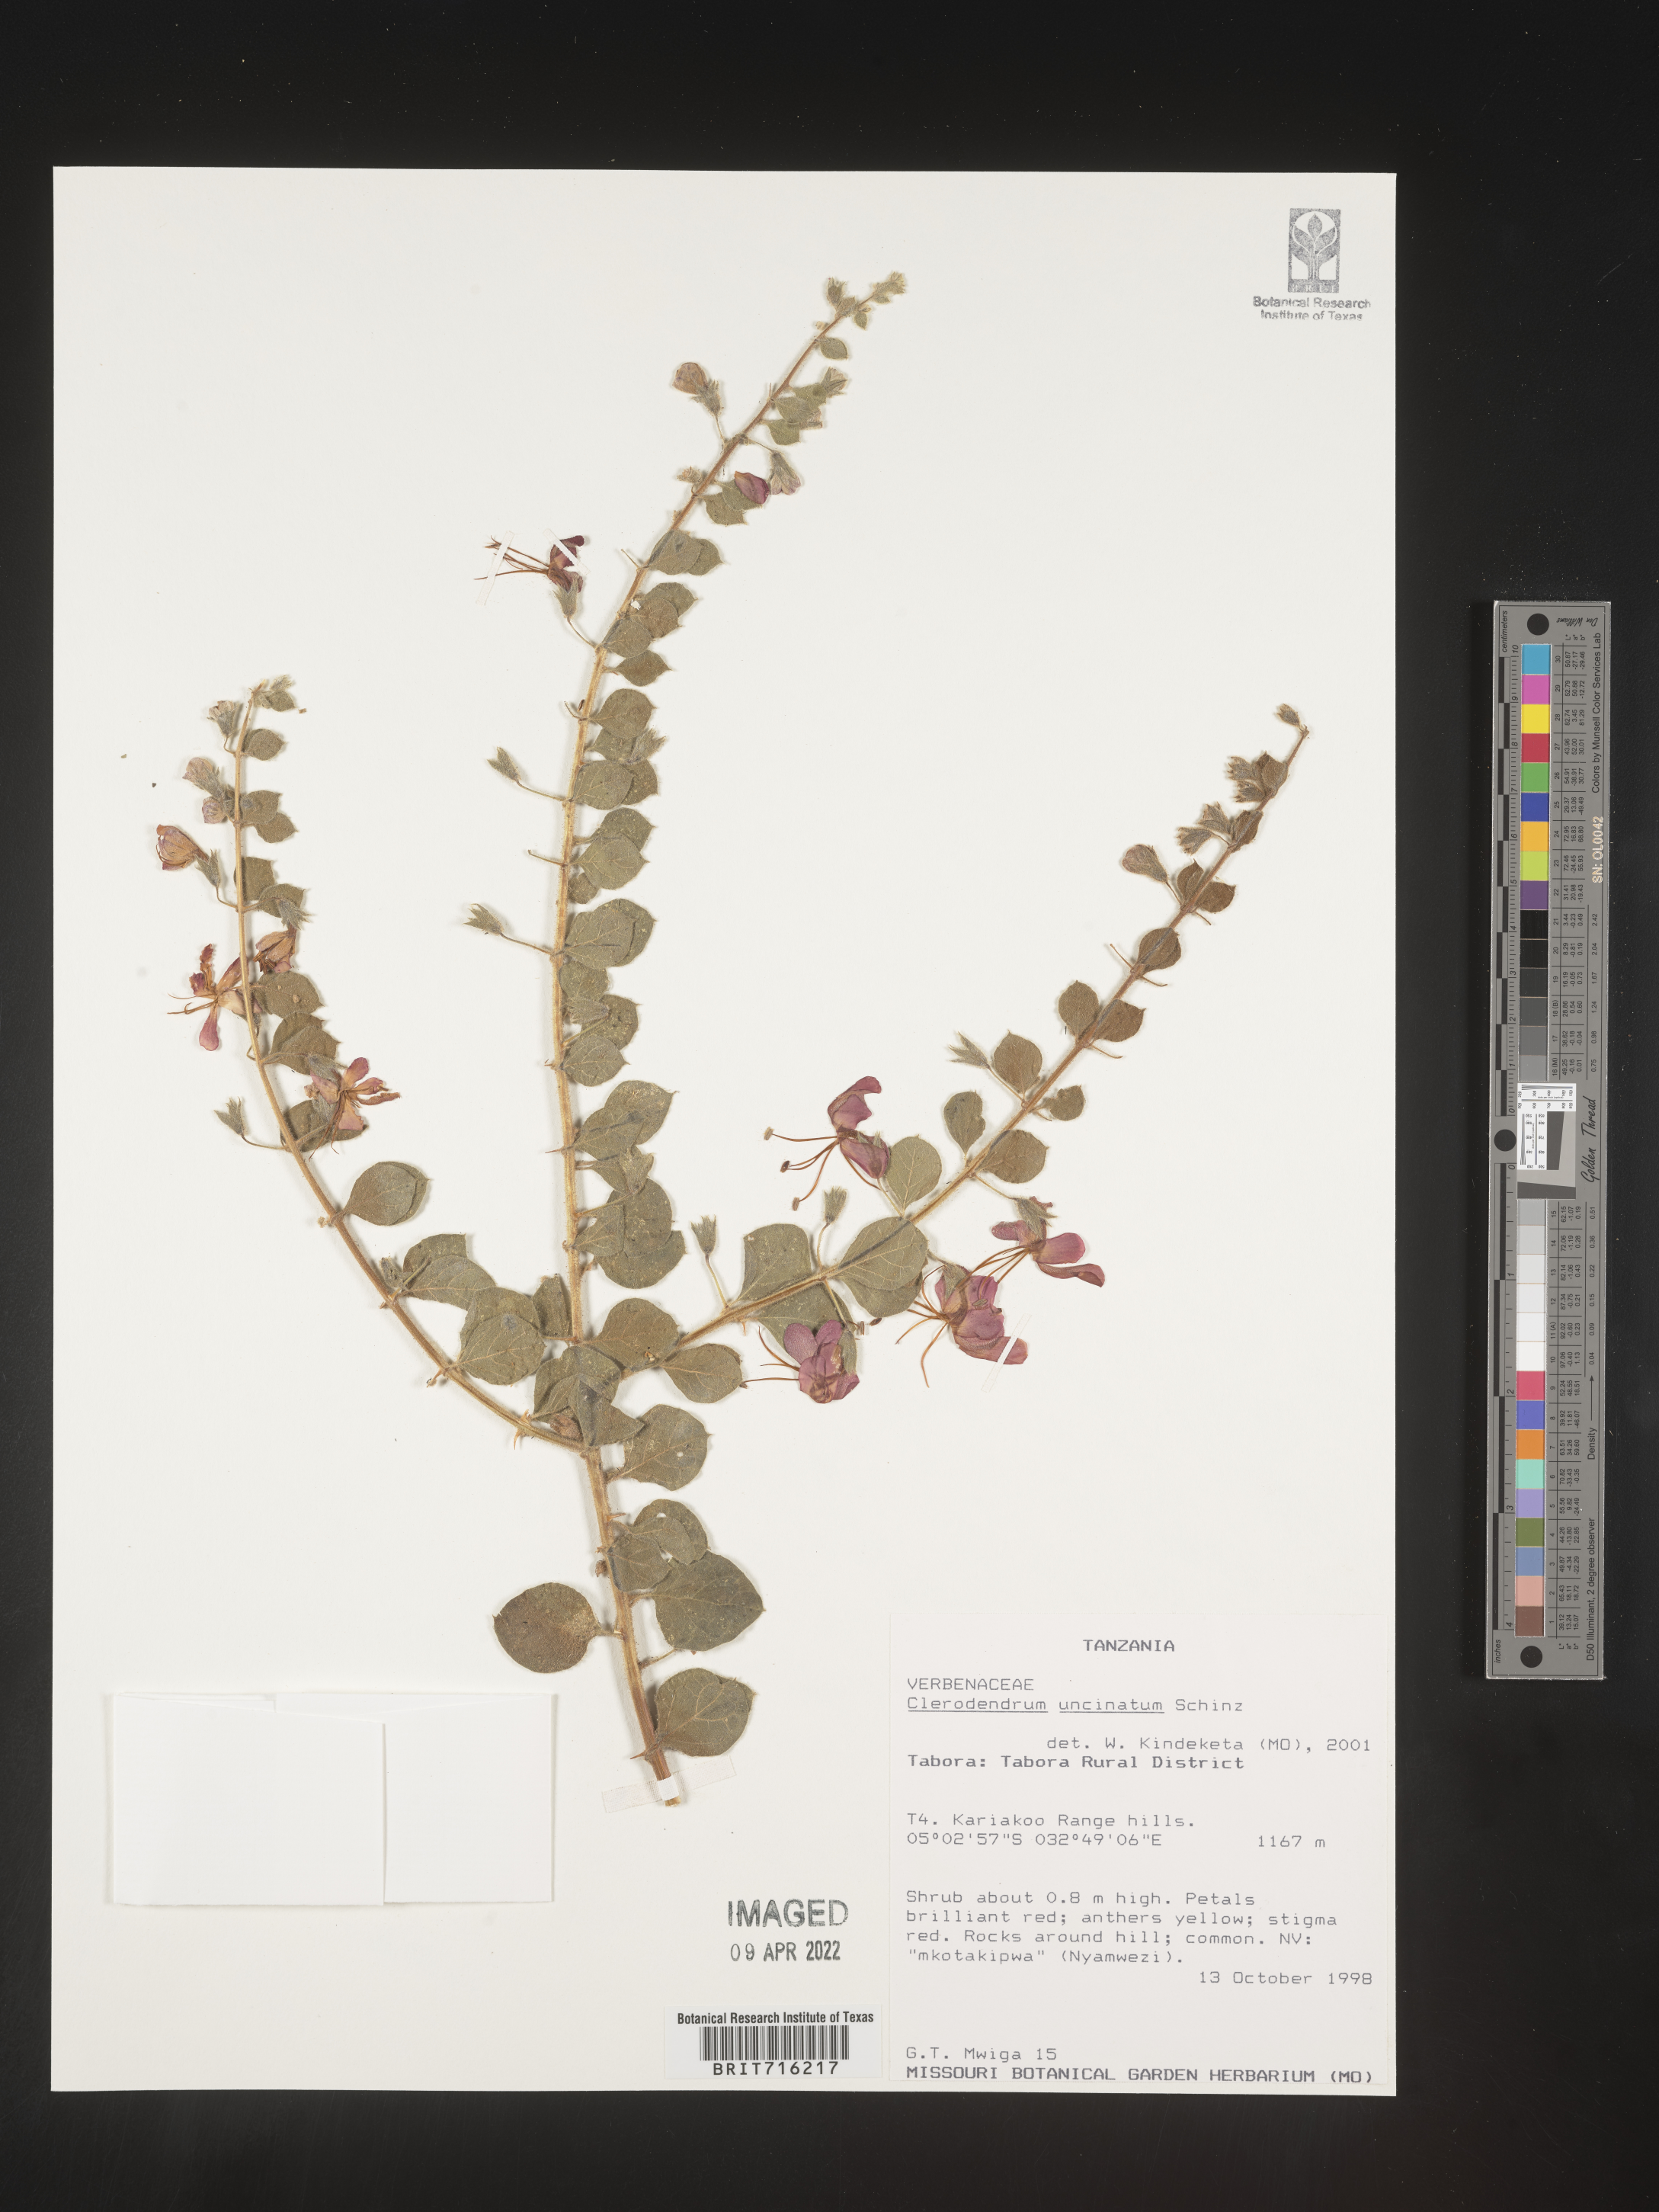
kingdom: Plantae
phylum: Tracheophyta
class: Magnoliopsida
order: Lamiales
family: Lamiaceae
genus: Clerodendrum
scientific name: Clerodendrum
